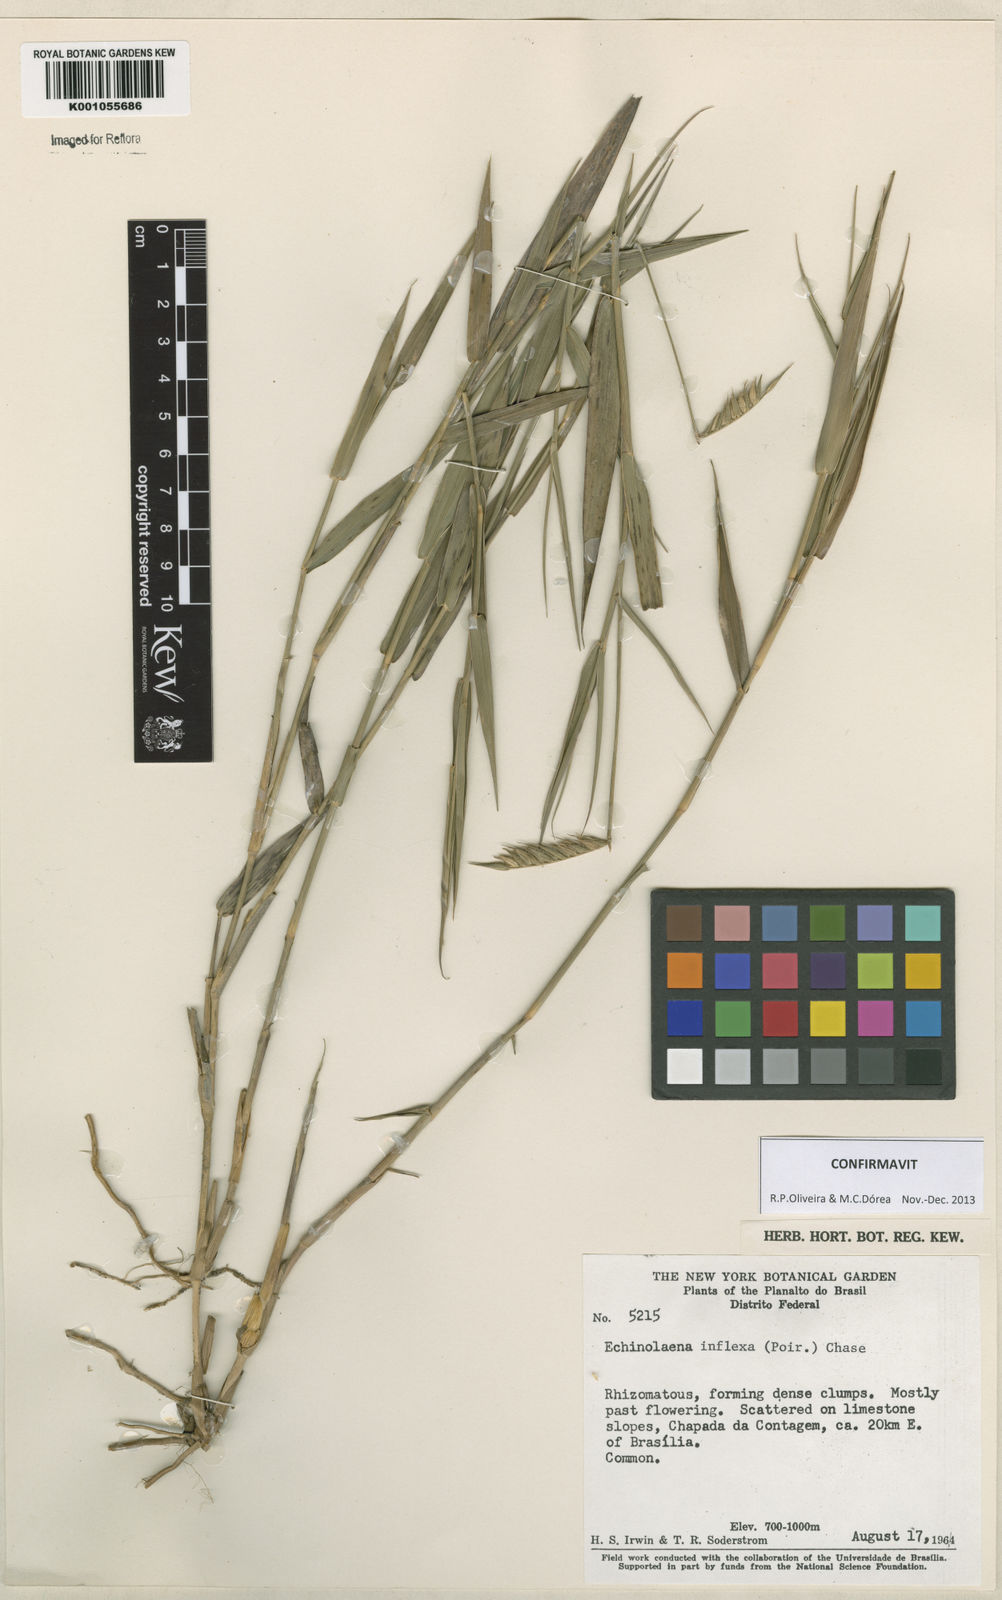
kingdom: Plantae
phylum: Tracheophyta
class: Liliopsida
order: Poales
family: Poaceae
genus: Echinolaena
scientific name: Echinolaena inflexa
